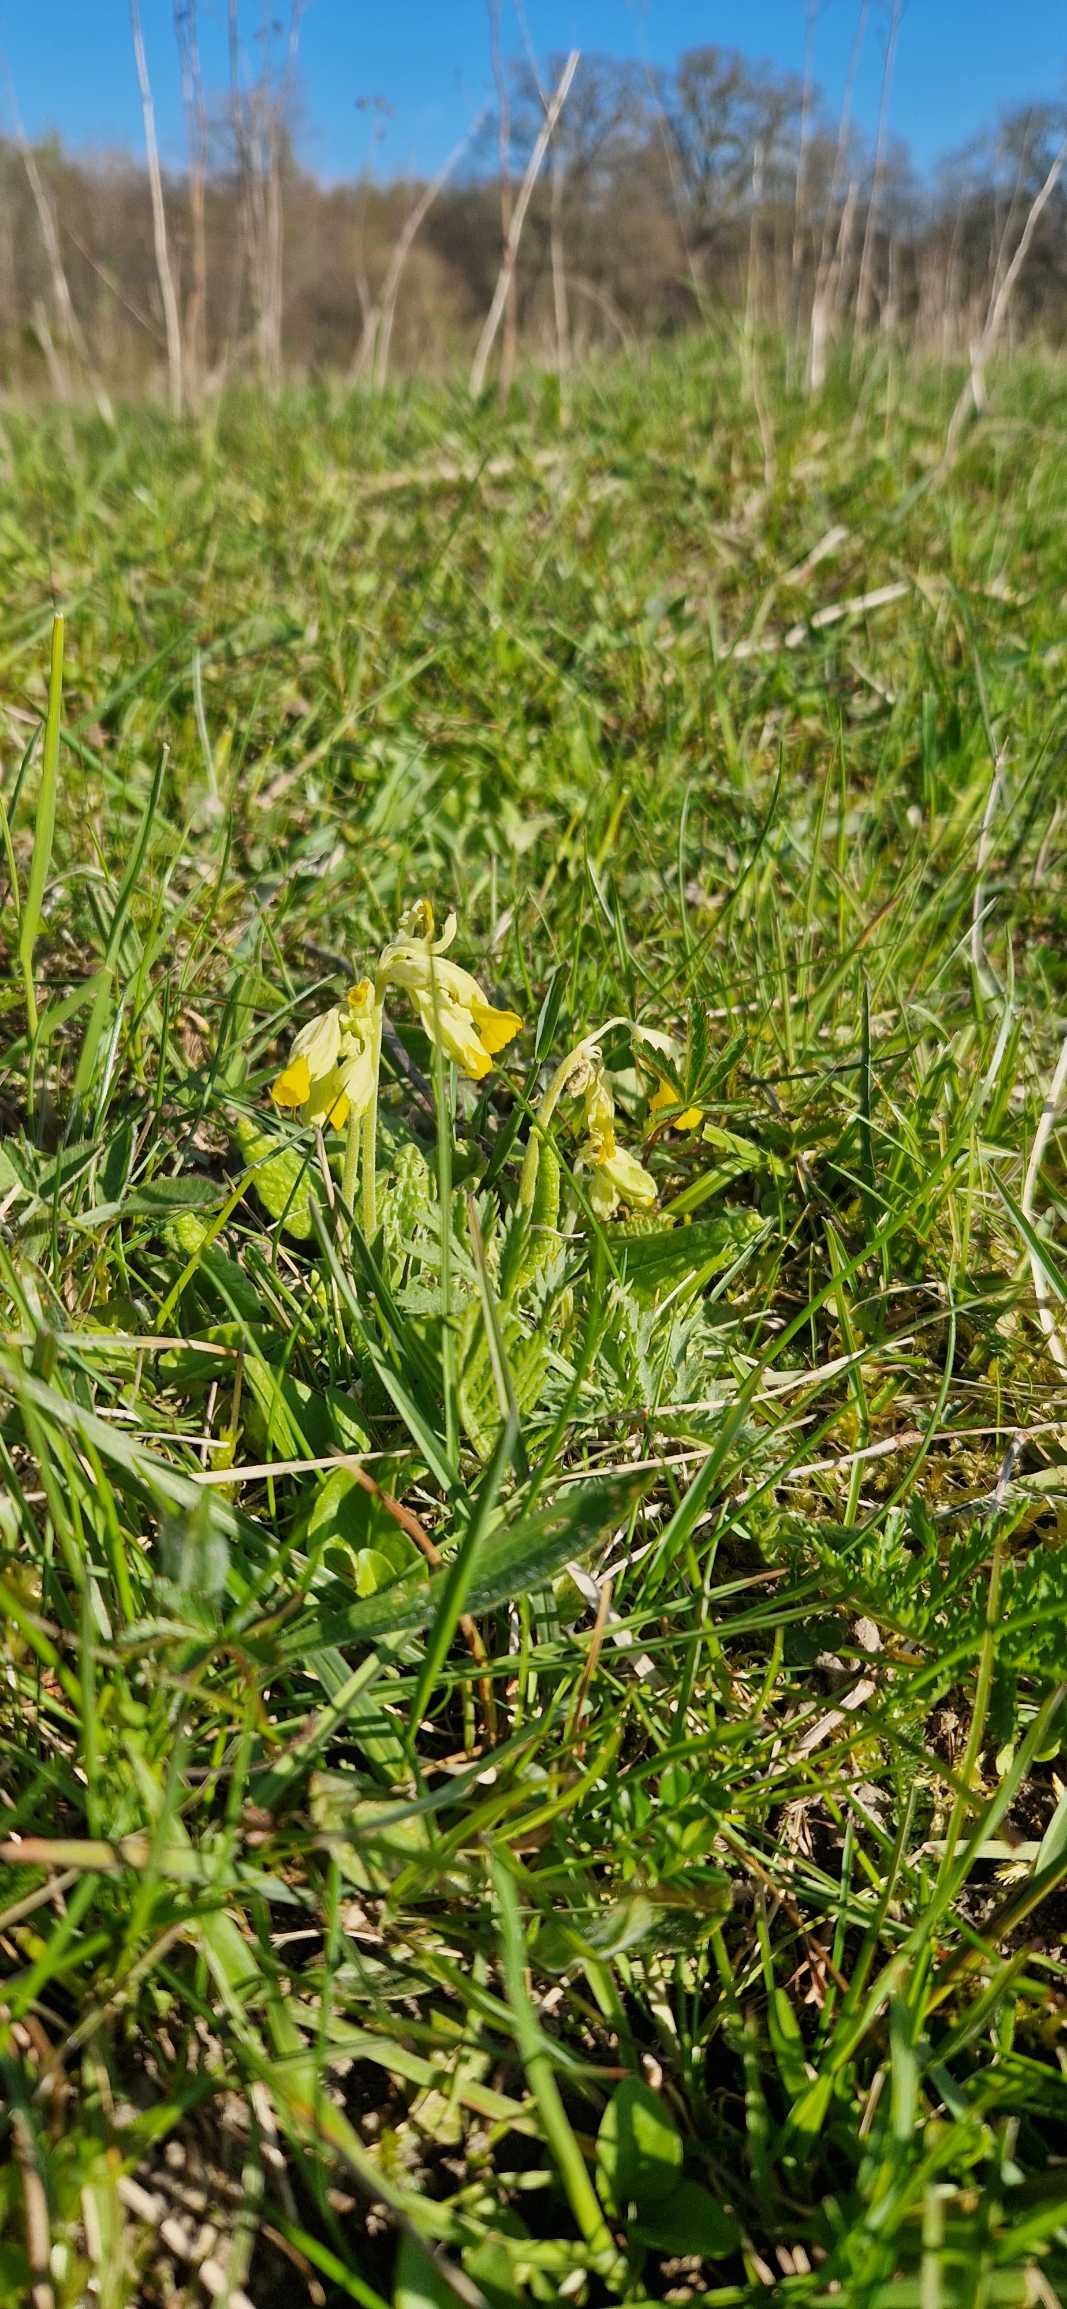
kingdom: Plantae
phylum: Tracheophyta
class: Magnoliopsida
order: Ericales
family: Primulaceae
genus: Primula
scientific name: Primula veris
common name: Hulkravet kodriver
